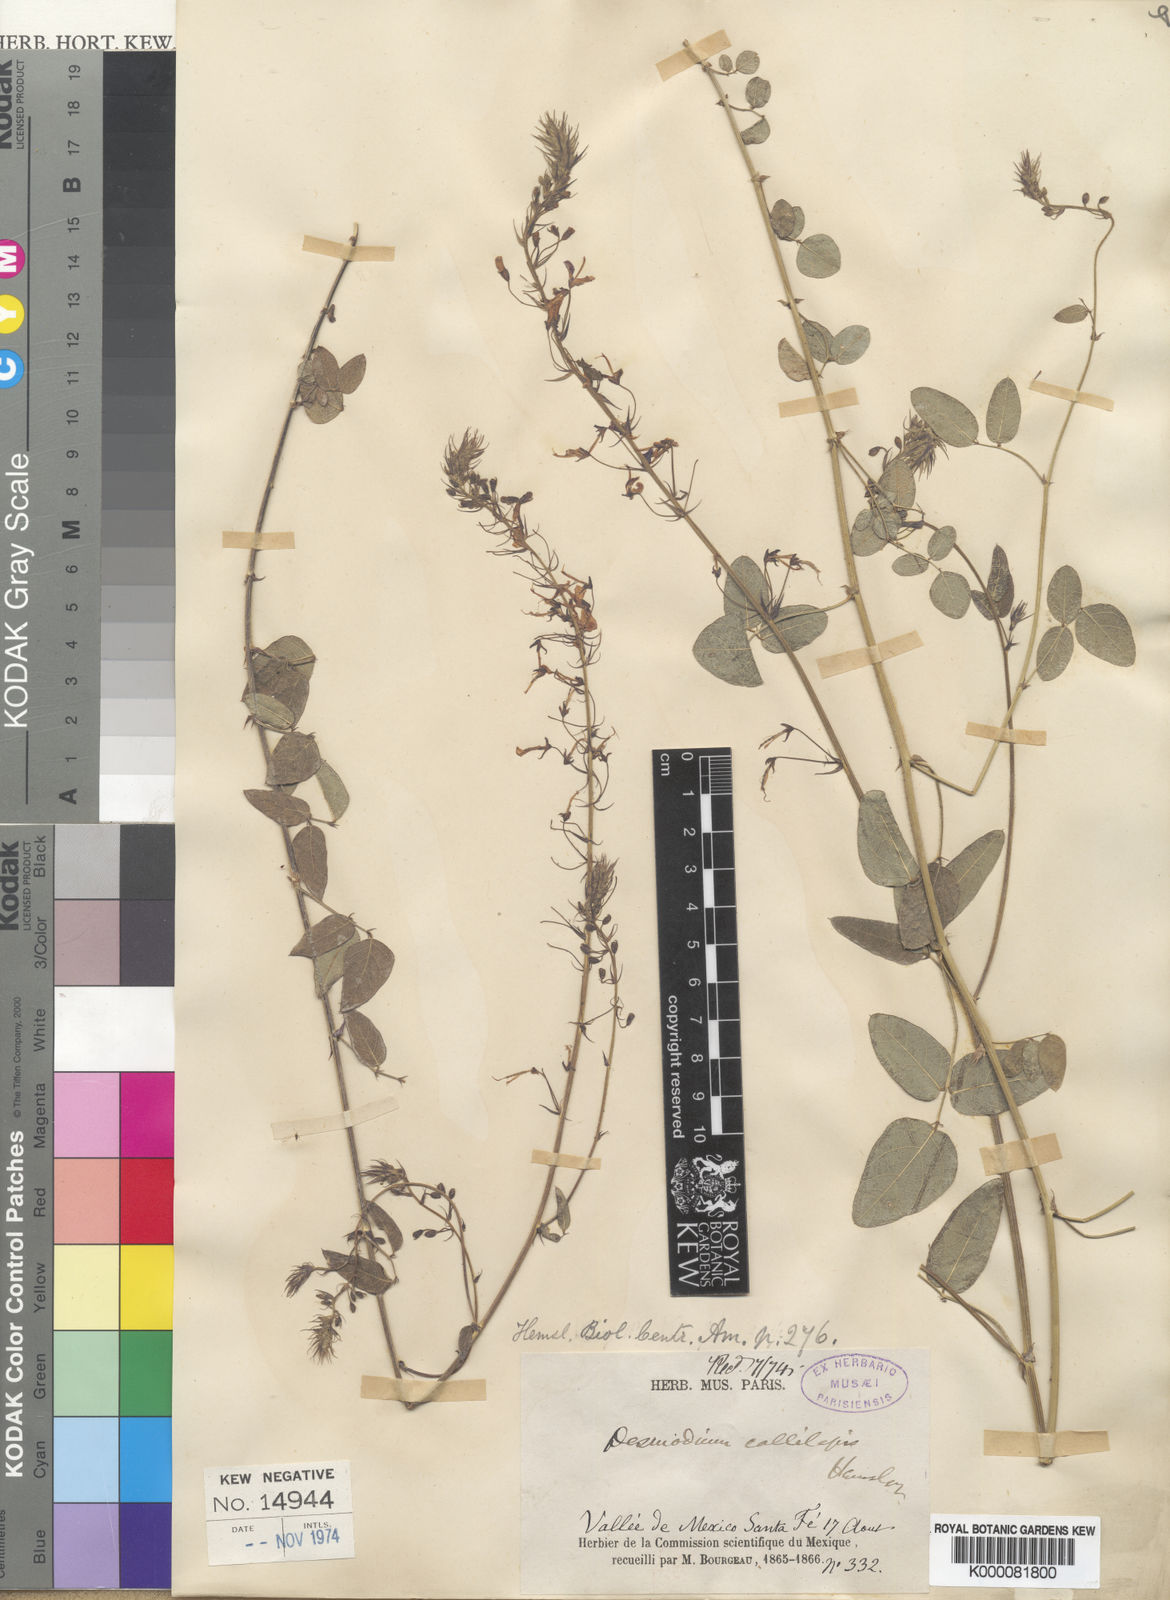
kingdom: Plantae
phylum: Tracheophyta
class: Magnoliopsida
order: Fabales
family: Fabaceae
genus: Desmodium
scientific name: Desmodium callilepis
